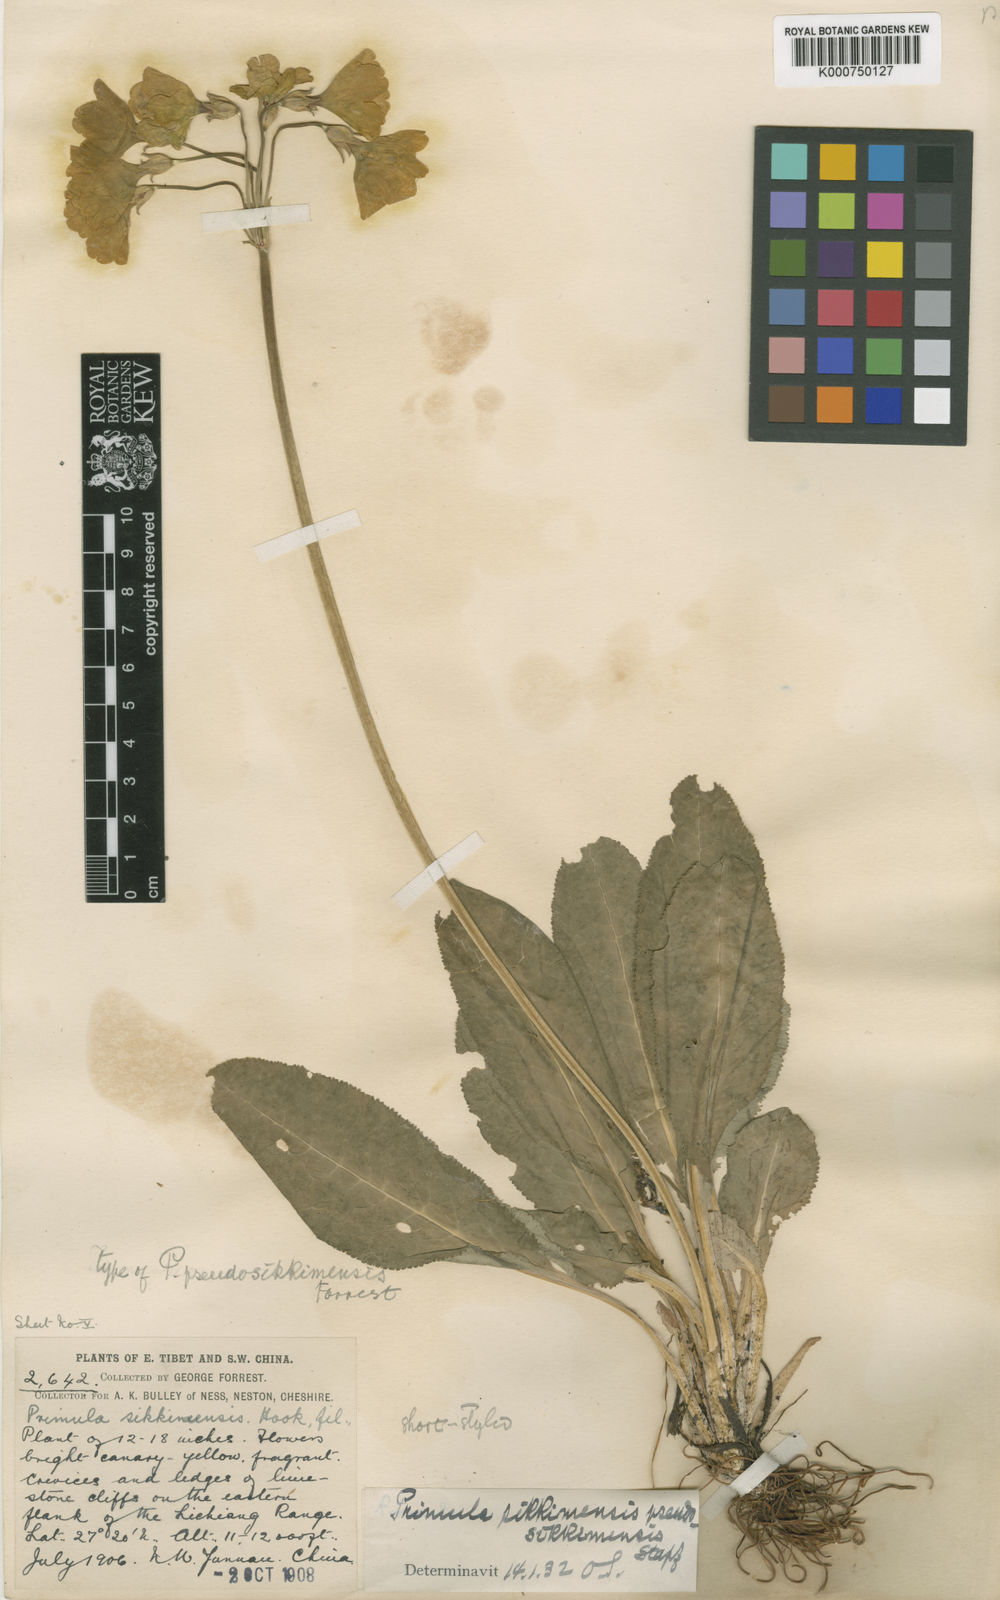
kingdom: Plantae
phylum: Tracheophyta
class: Magnoliopsida
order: Ericales
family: Primulaceae
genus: Primula
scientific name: Primula sikkimensis
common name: Sikkim cowslip
